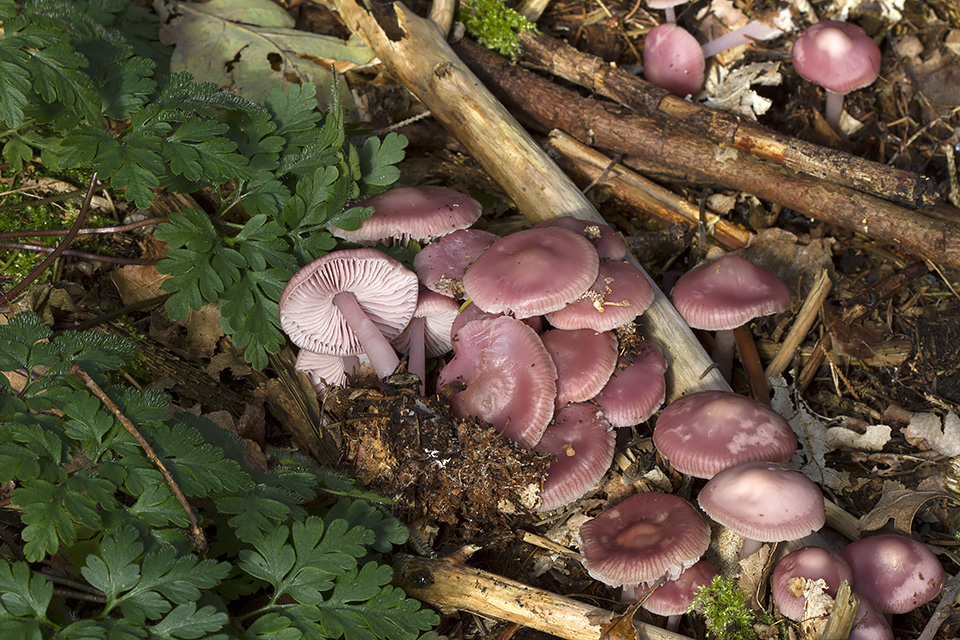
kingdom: Fungi
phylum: Basidiomycota
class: Agaricomycetes
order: Agaricales
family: Mycenaceae
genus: Mycena
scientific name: Mycena rosea
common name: rosa huesvamp
